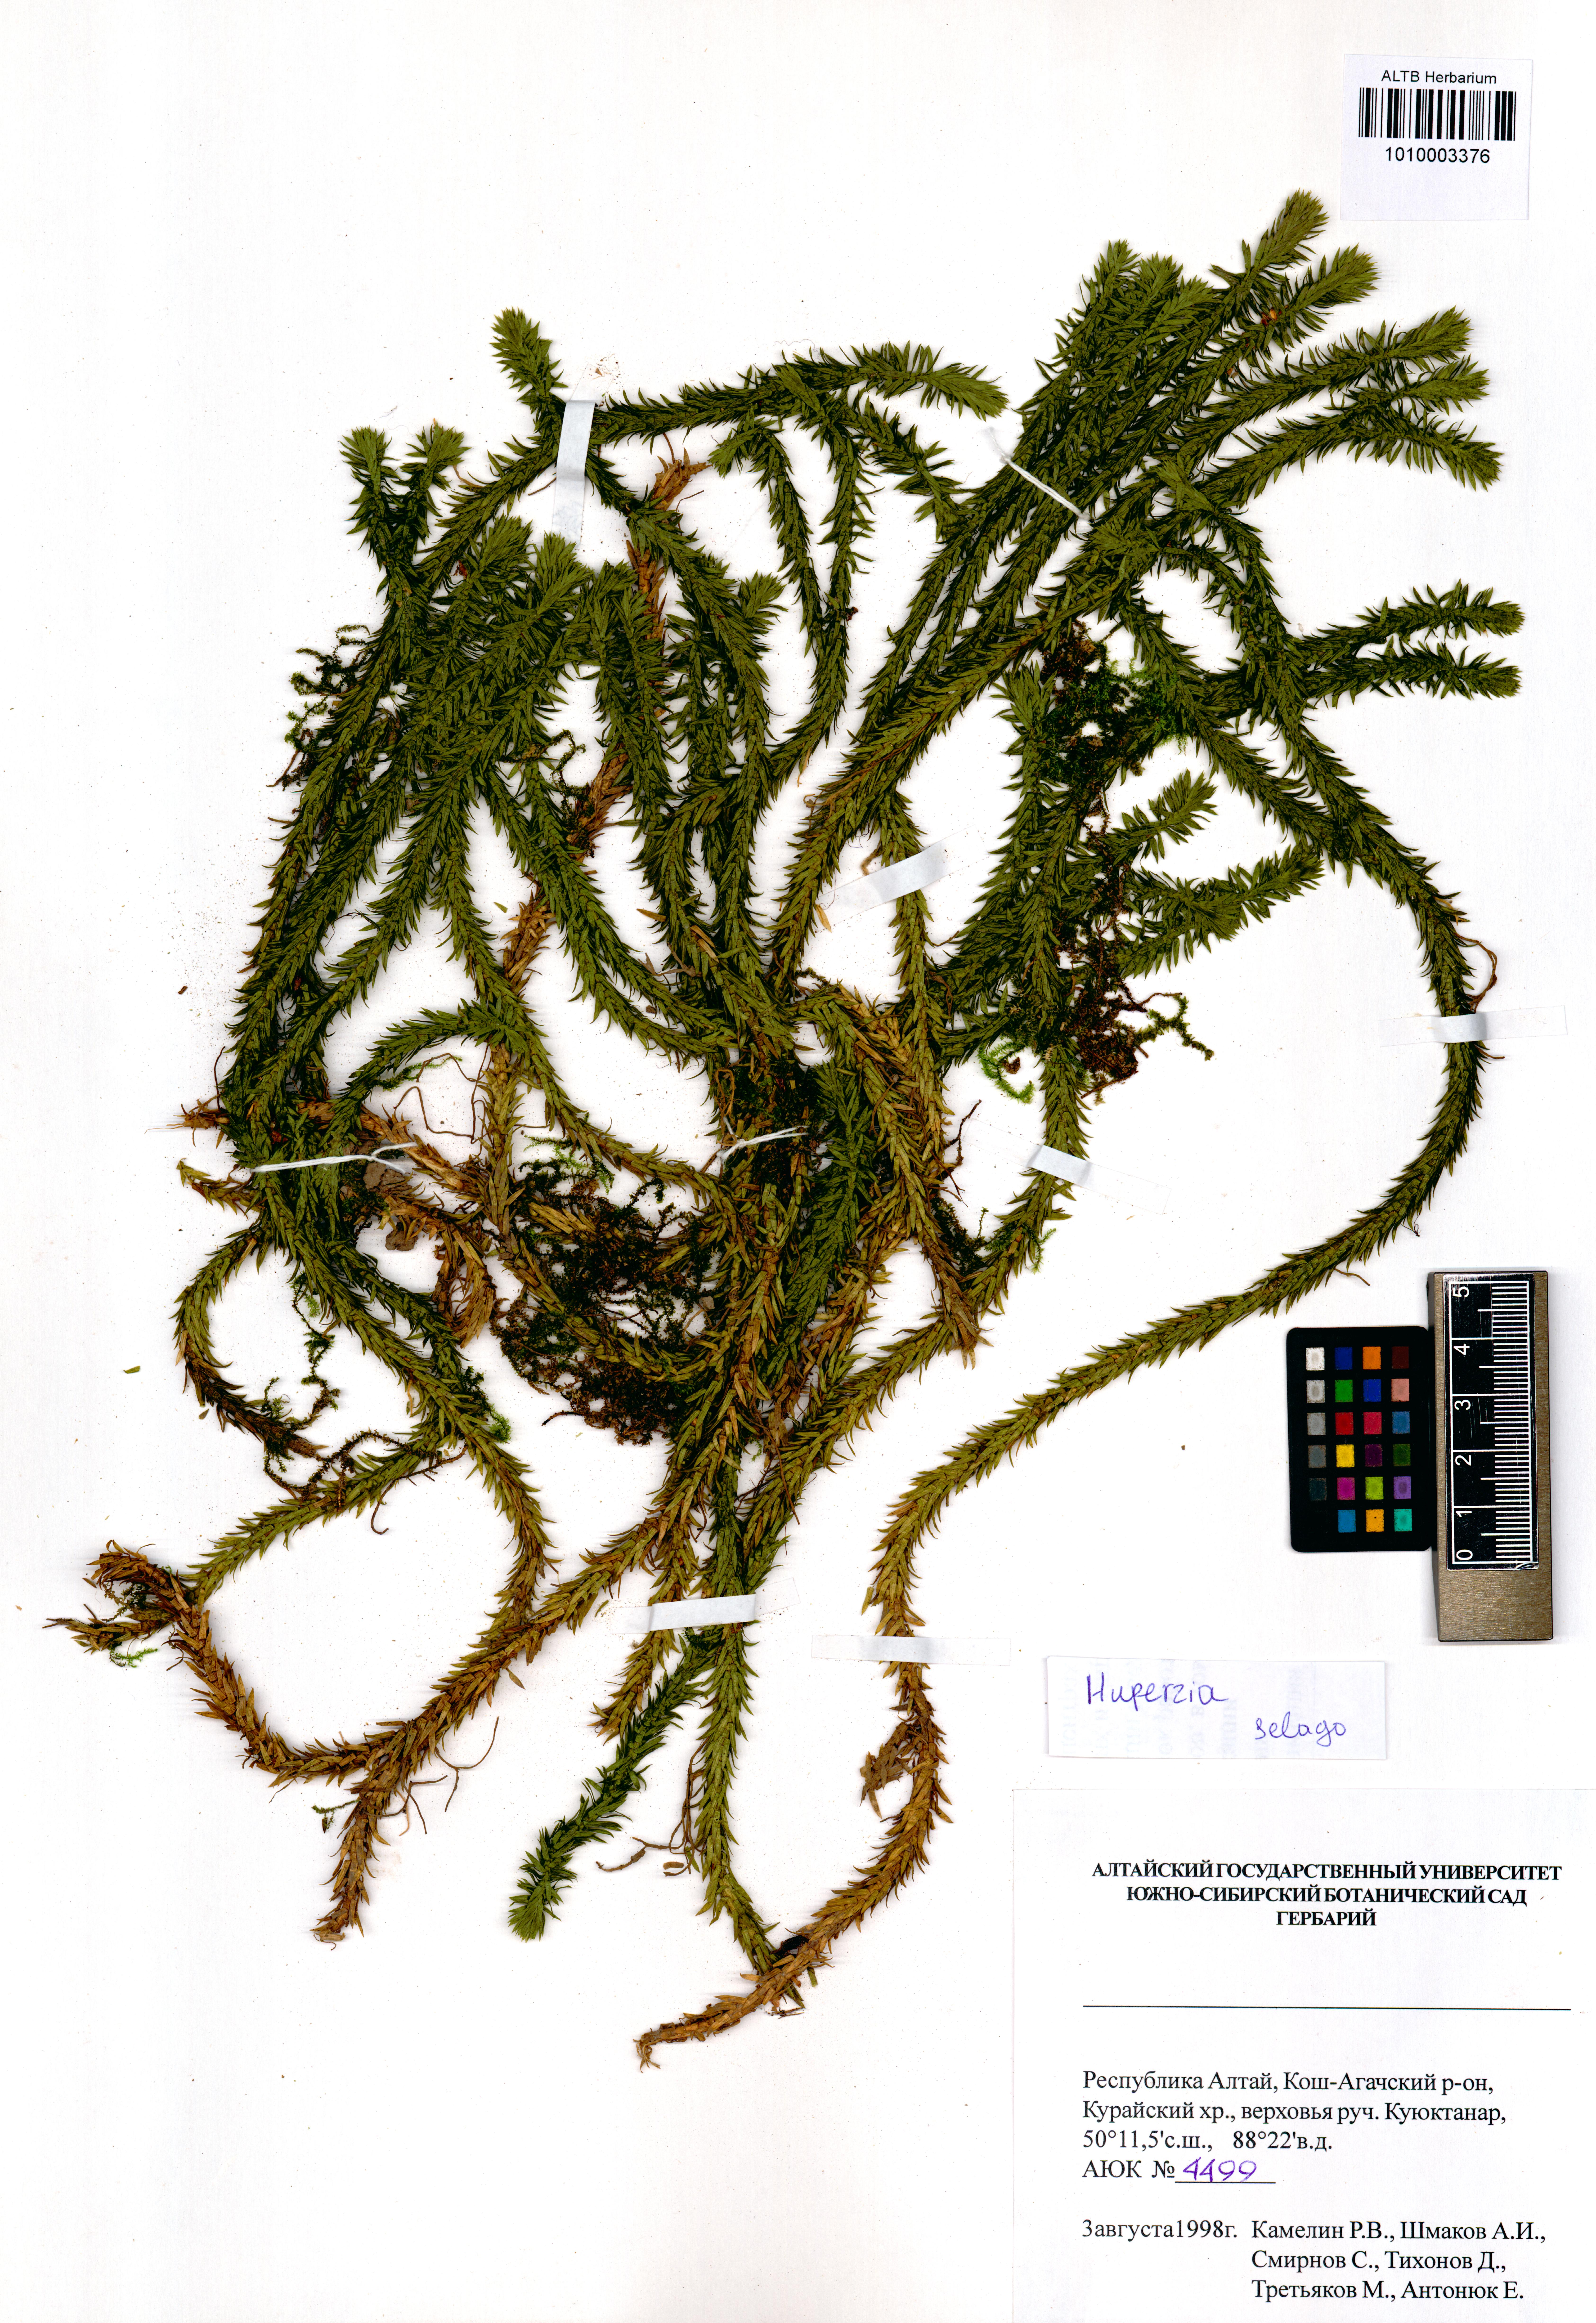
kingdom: Plantae
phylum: Tracheophyta
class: Lycopodiopsida
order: Lycopodiales
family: Lycopodiaceae
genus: Huperzia
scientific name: Huperzia selago
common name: Northern firmoss
